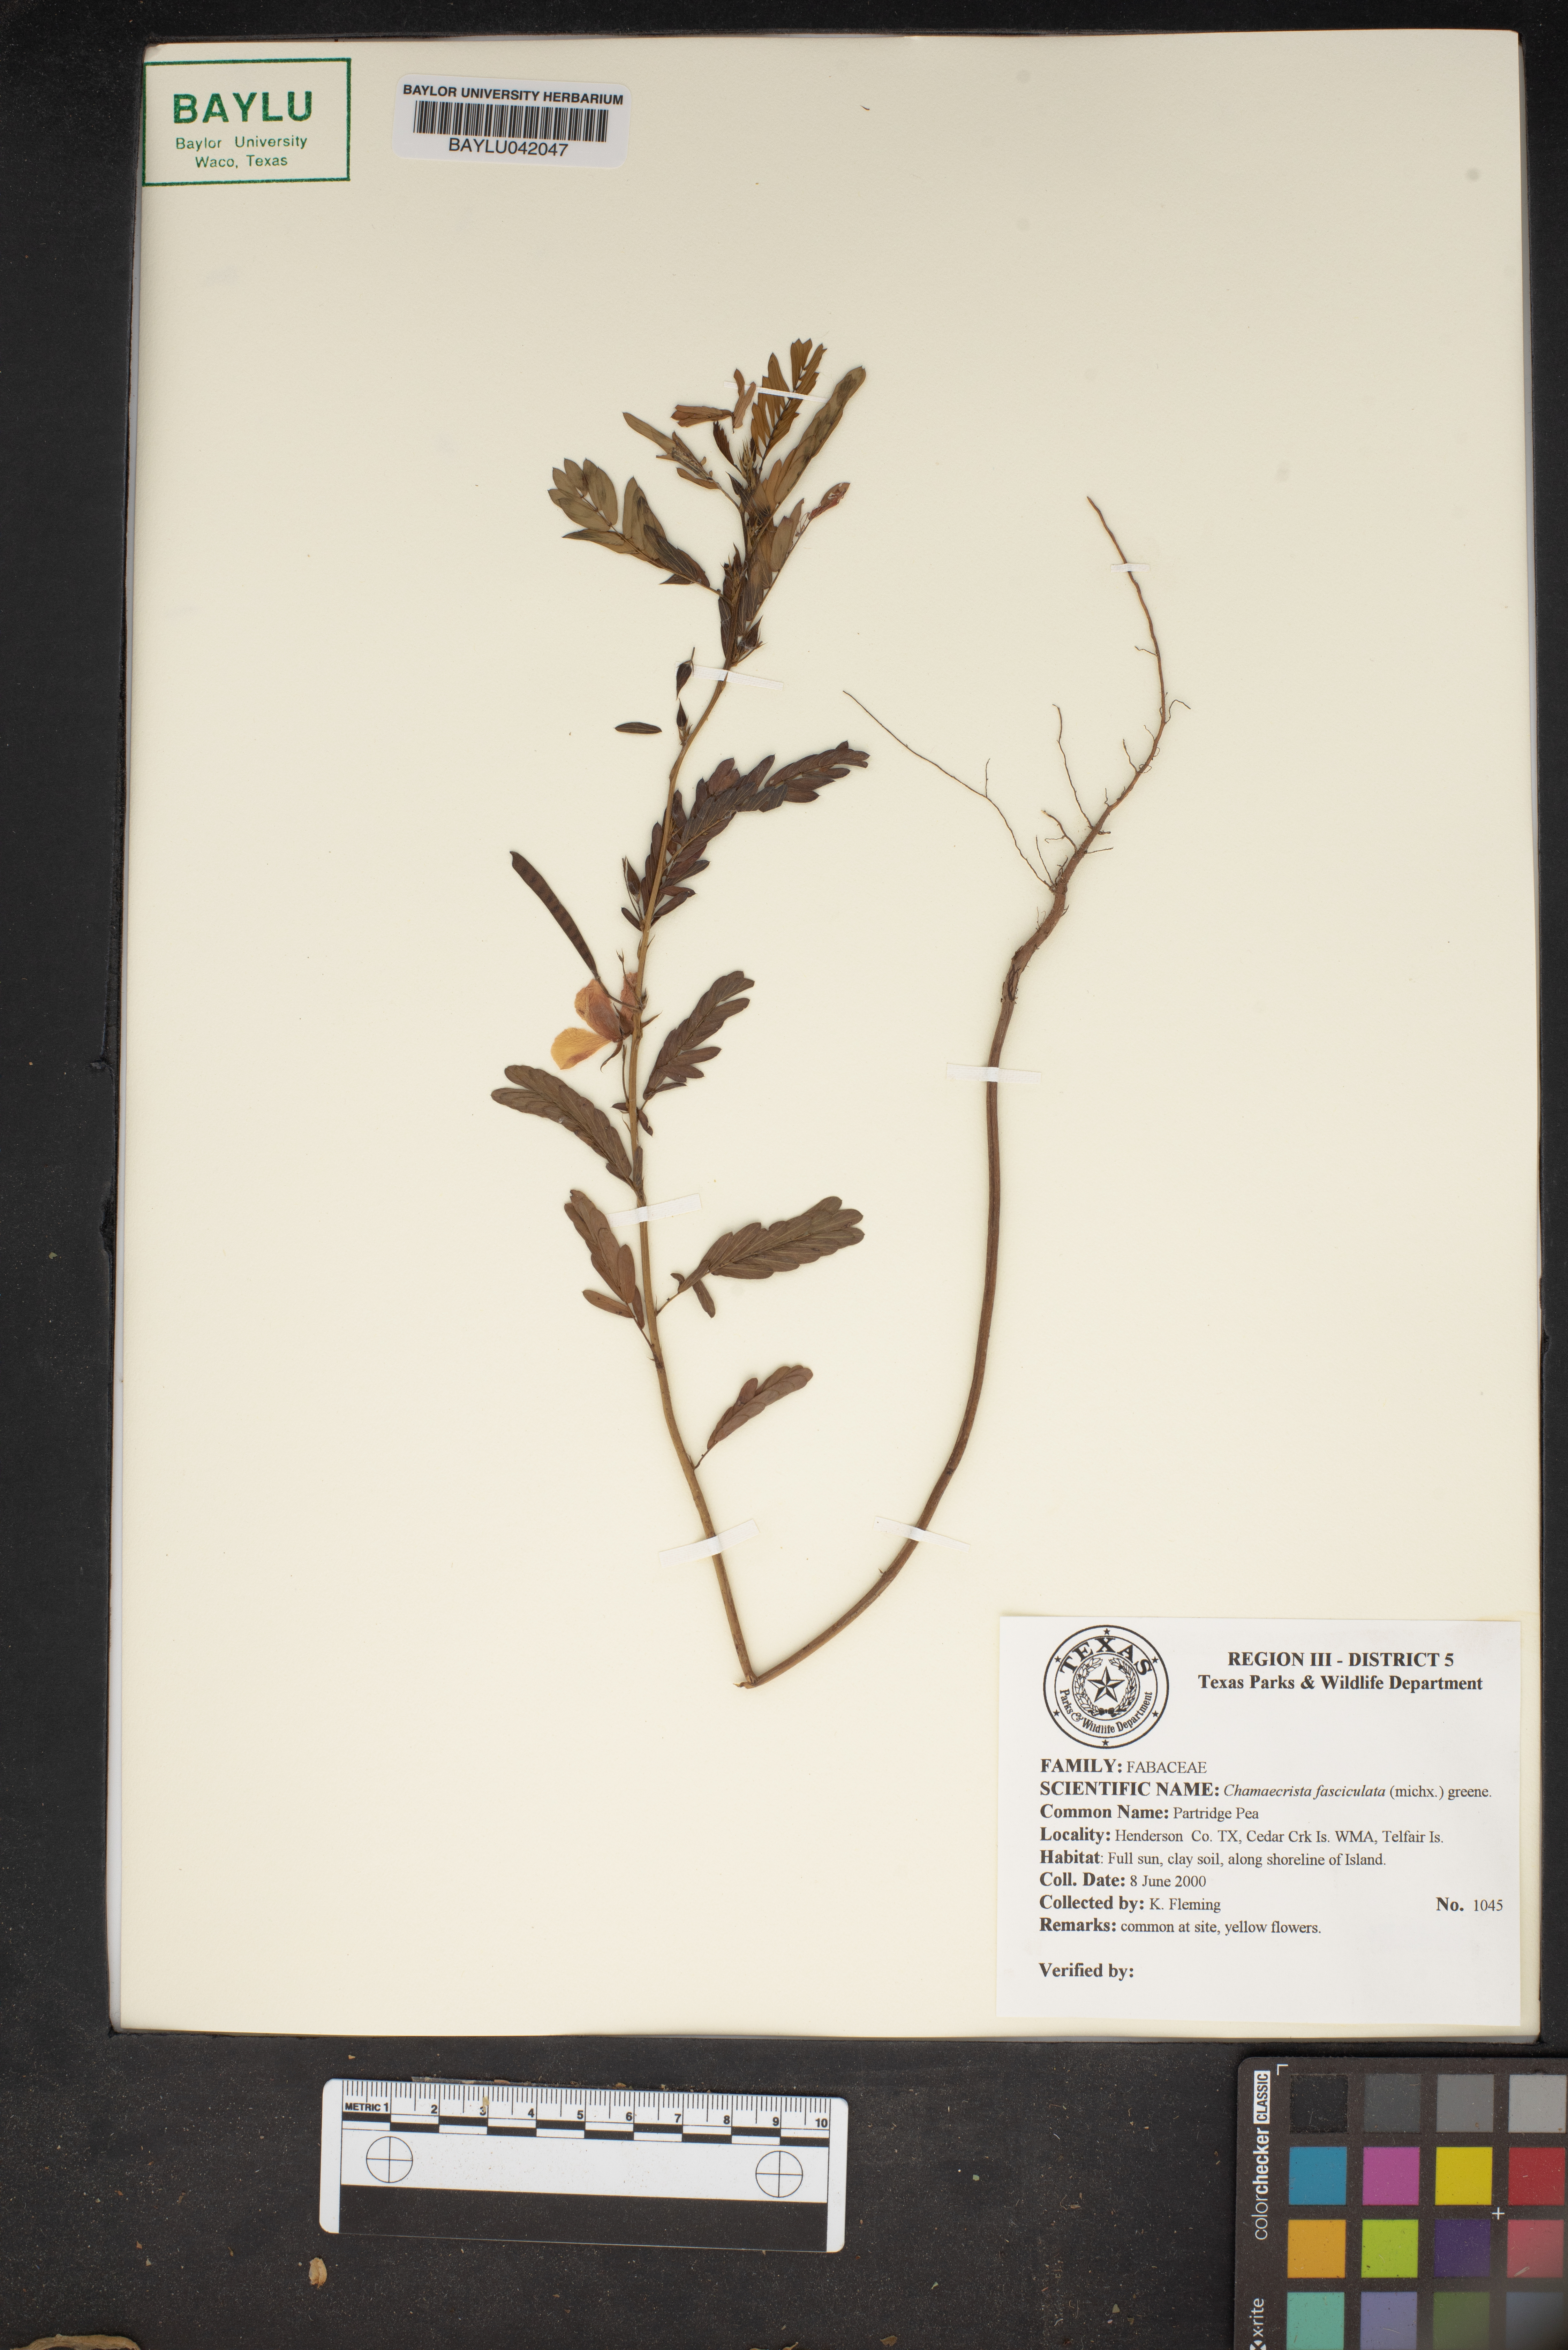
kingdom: Plantae
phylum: Tracheophyta
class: Magnoliopsida
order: Fabales
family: Fabaceae
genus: Chamaecrista
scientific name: Chamaecrista fasciculata
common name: Golden cassia
